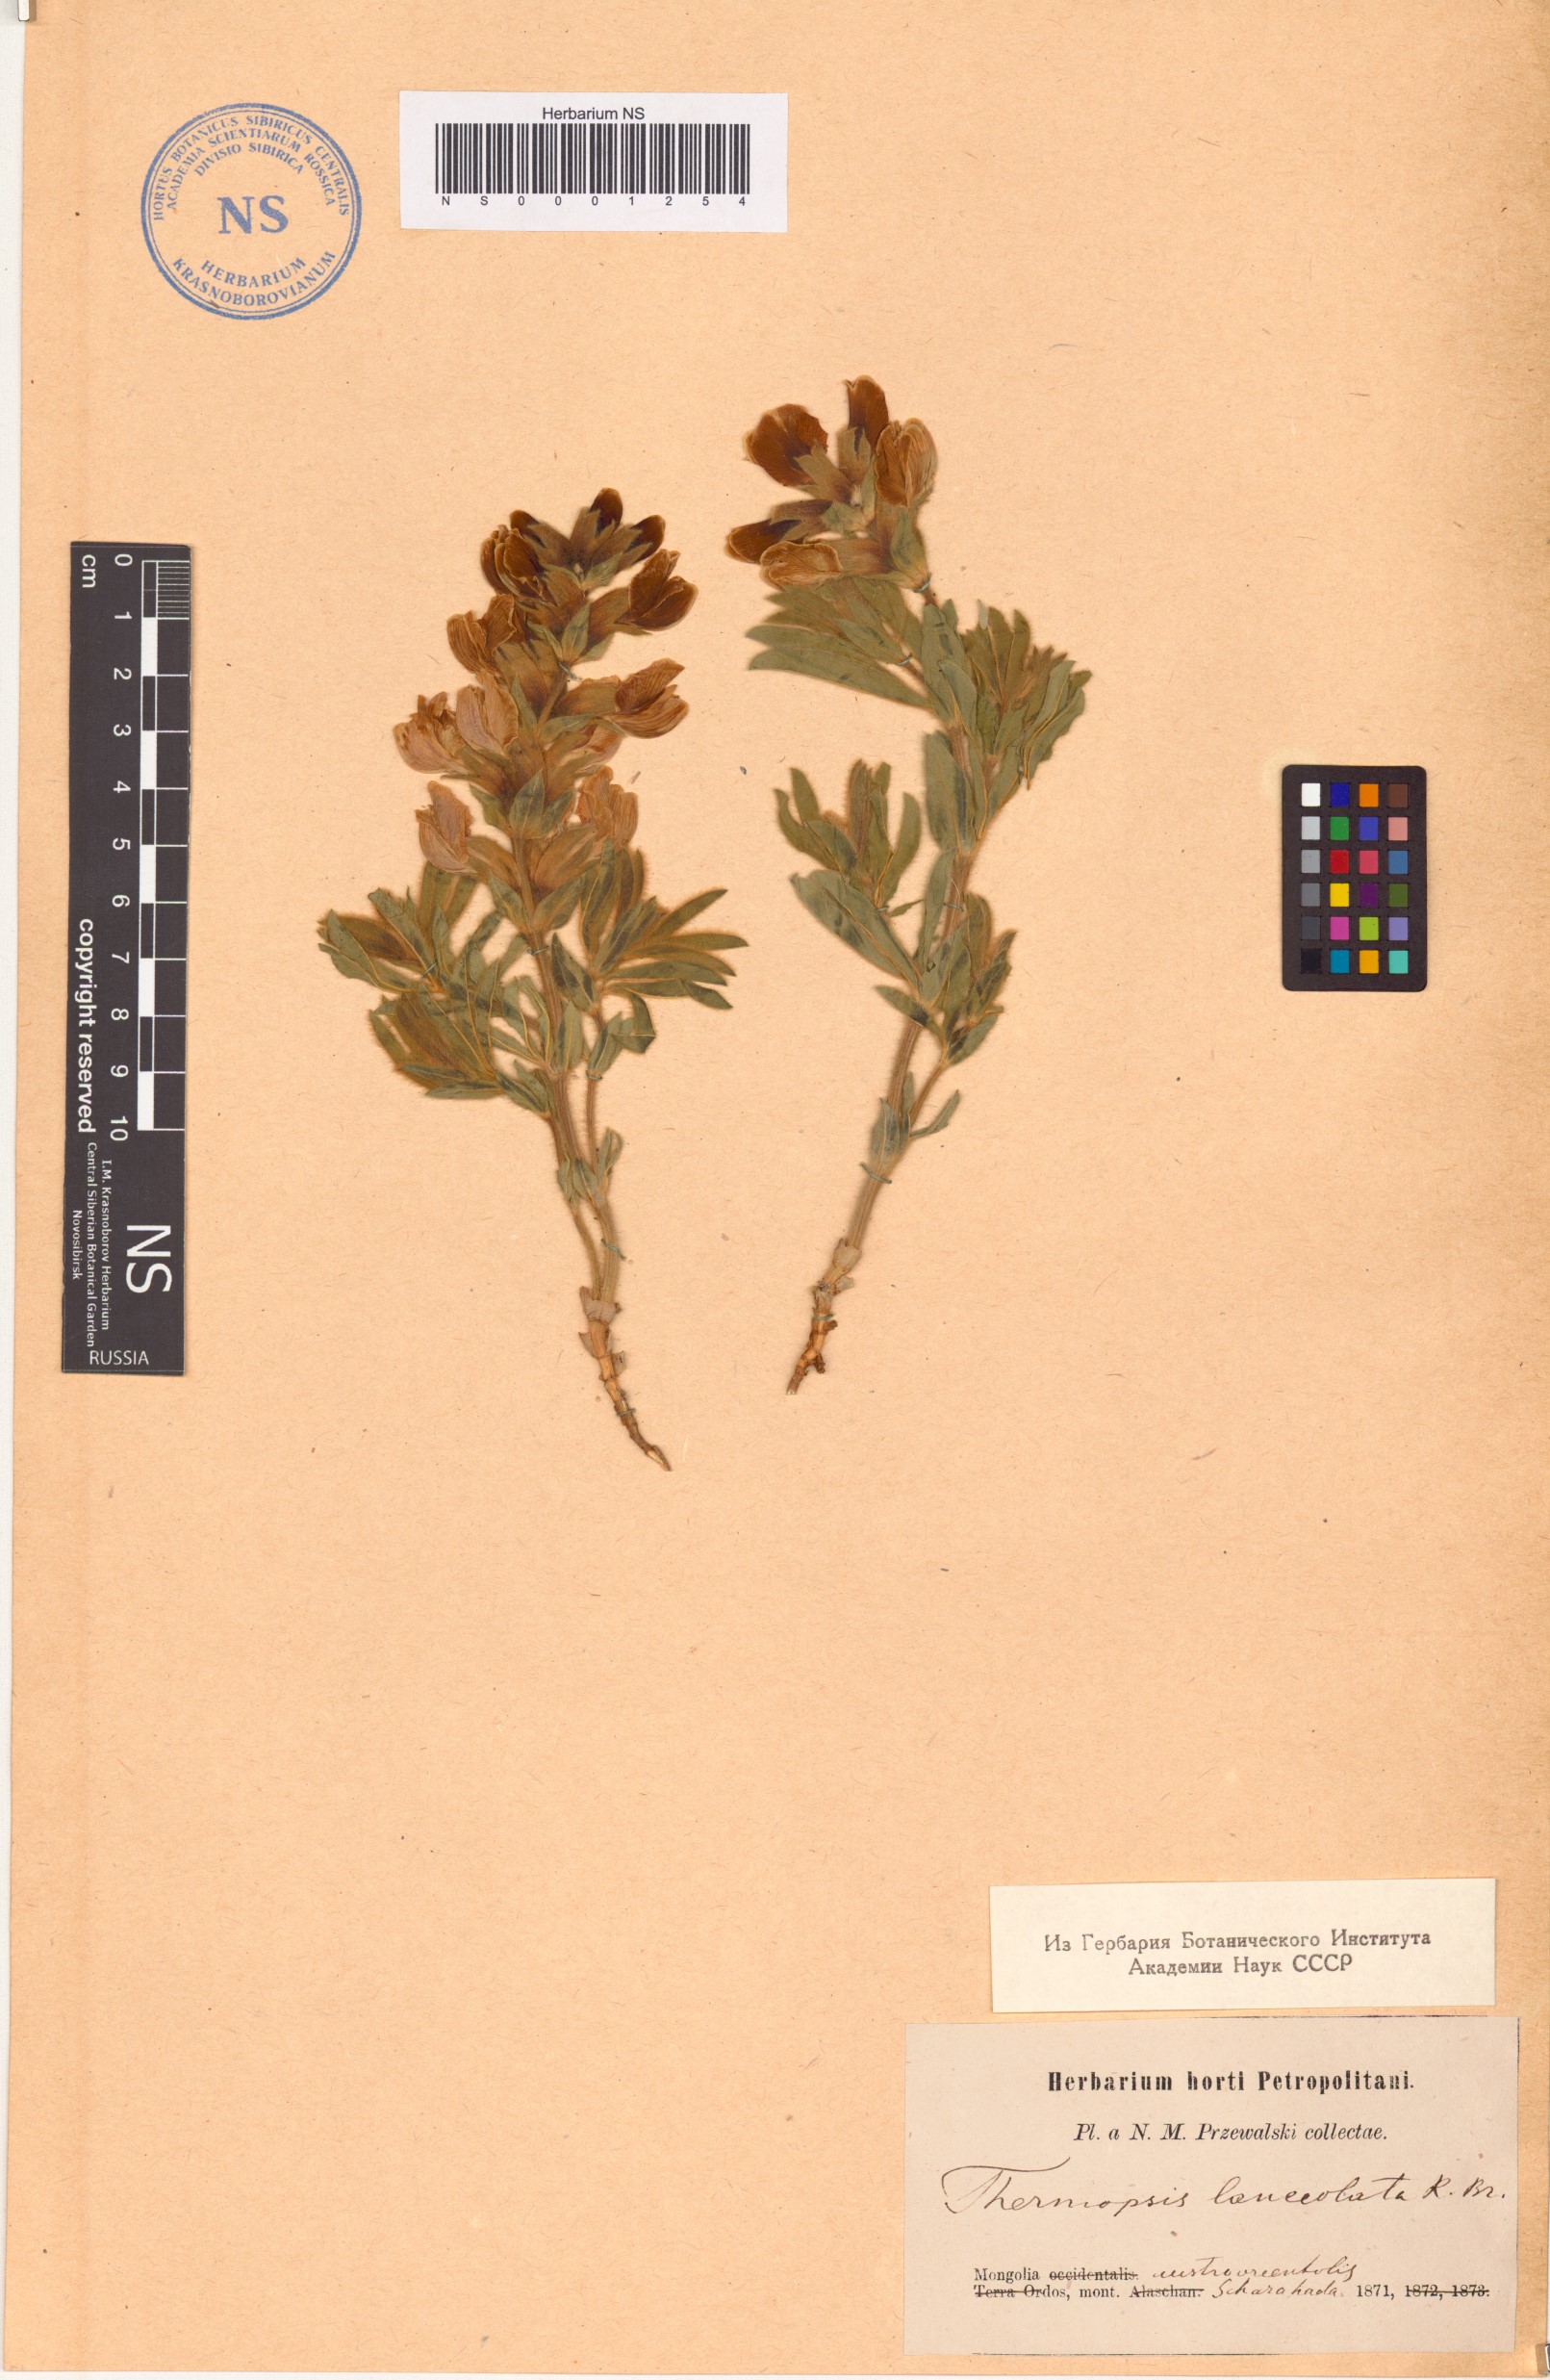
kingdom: Plantae
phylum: Tracheophyta
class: Magnoliopsida
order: Fabales
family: Fabaceae
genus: Thermopsis
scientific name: Thermopsis lanceolata
